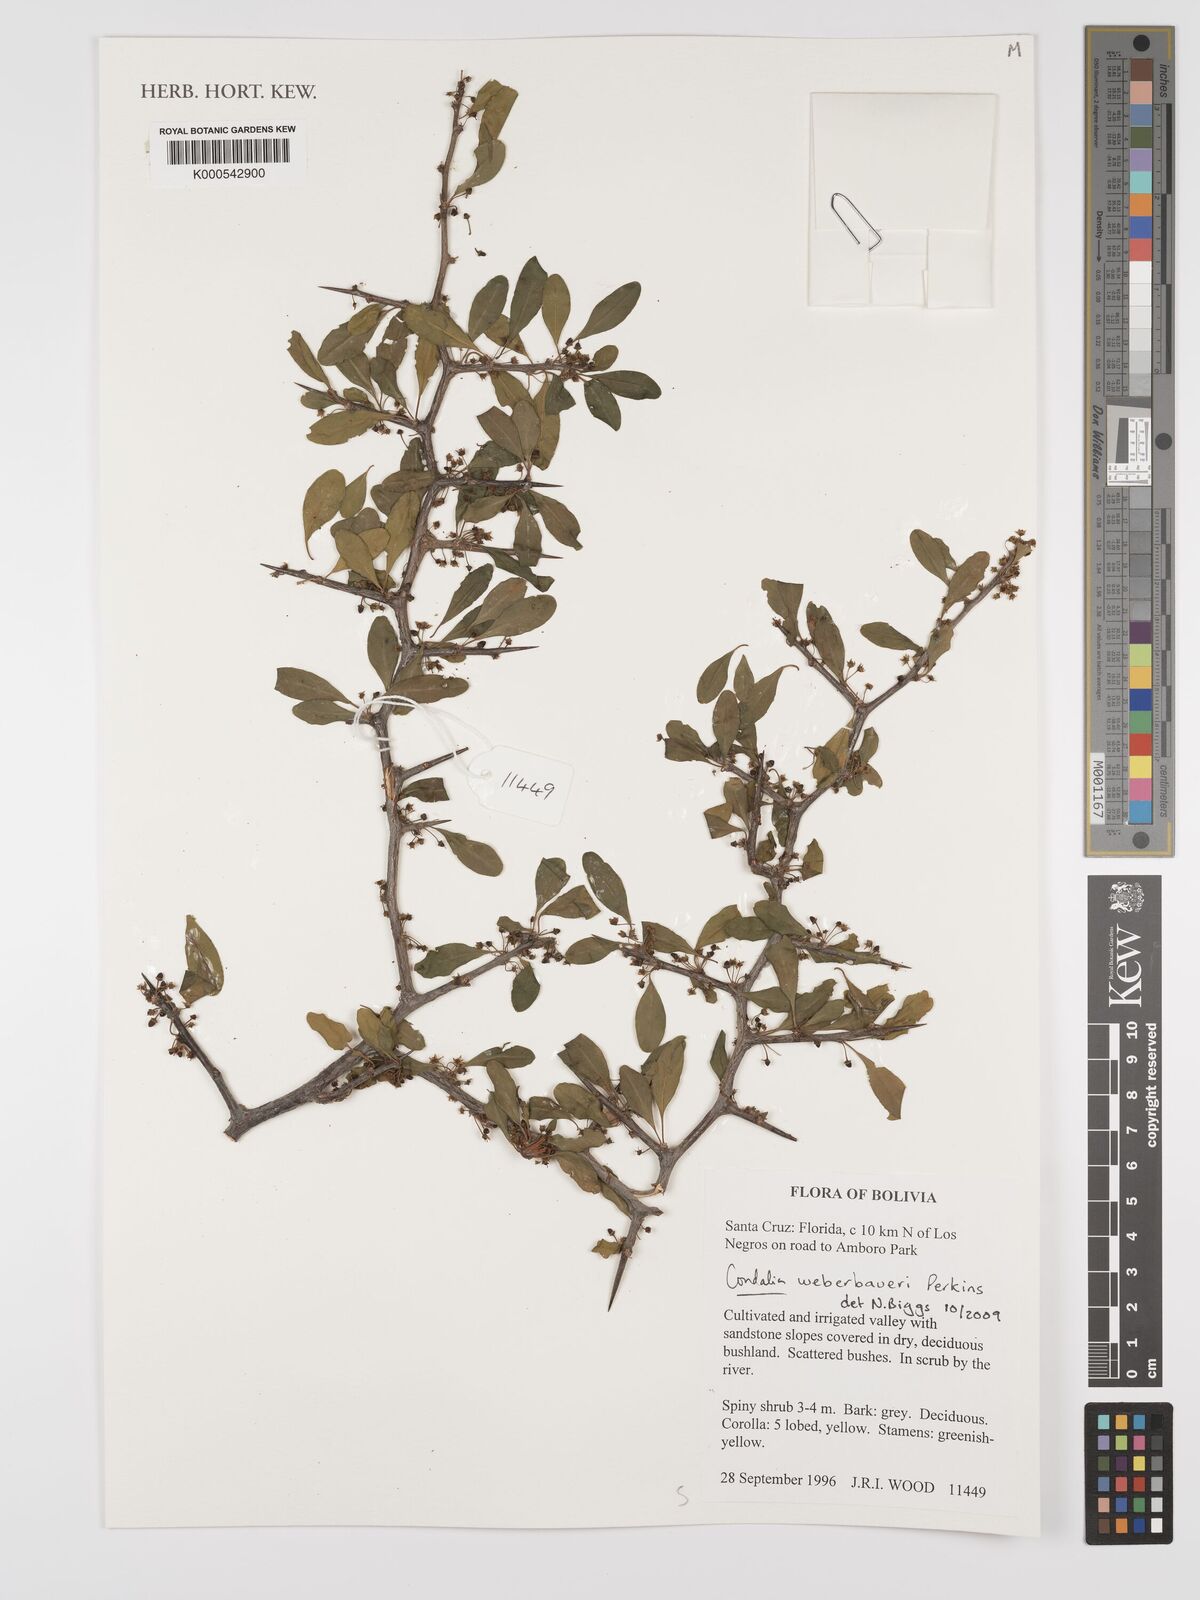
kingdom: Plantae
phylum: Tracheophyta
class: Magnoliopsida
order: Rosales
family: Rhamnaceae
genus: Condalia
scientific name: Condalia weberbaueri
